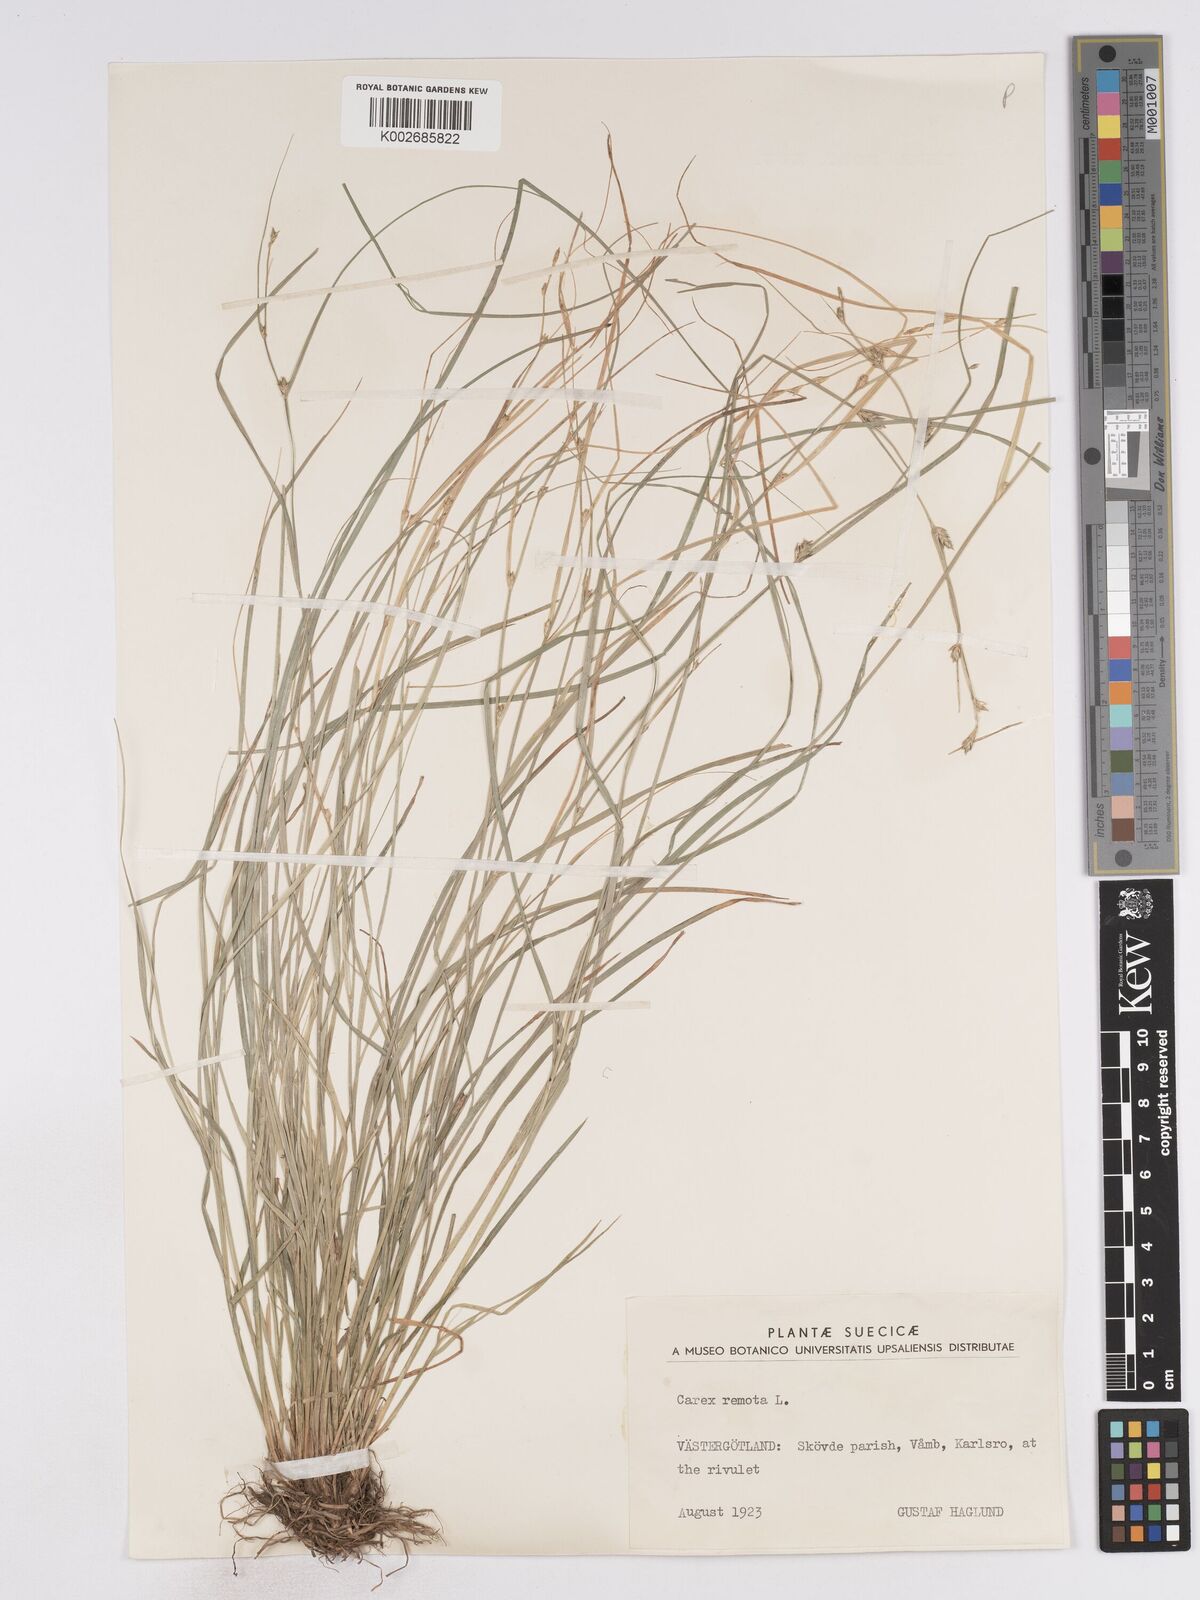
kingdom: Plantae
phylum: Tracheophyta
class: Liliopsida
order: Poales
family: Cyperaceae
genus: Carex
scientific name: Carex remota
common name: Remote sedge
